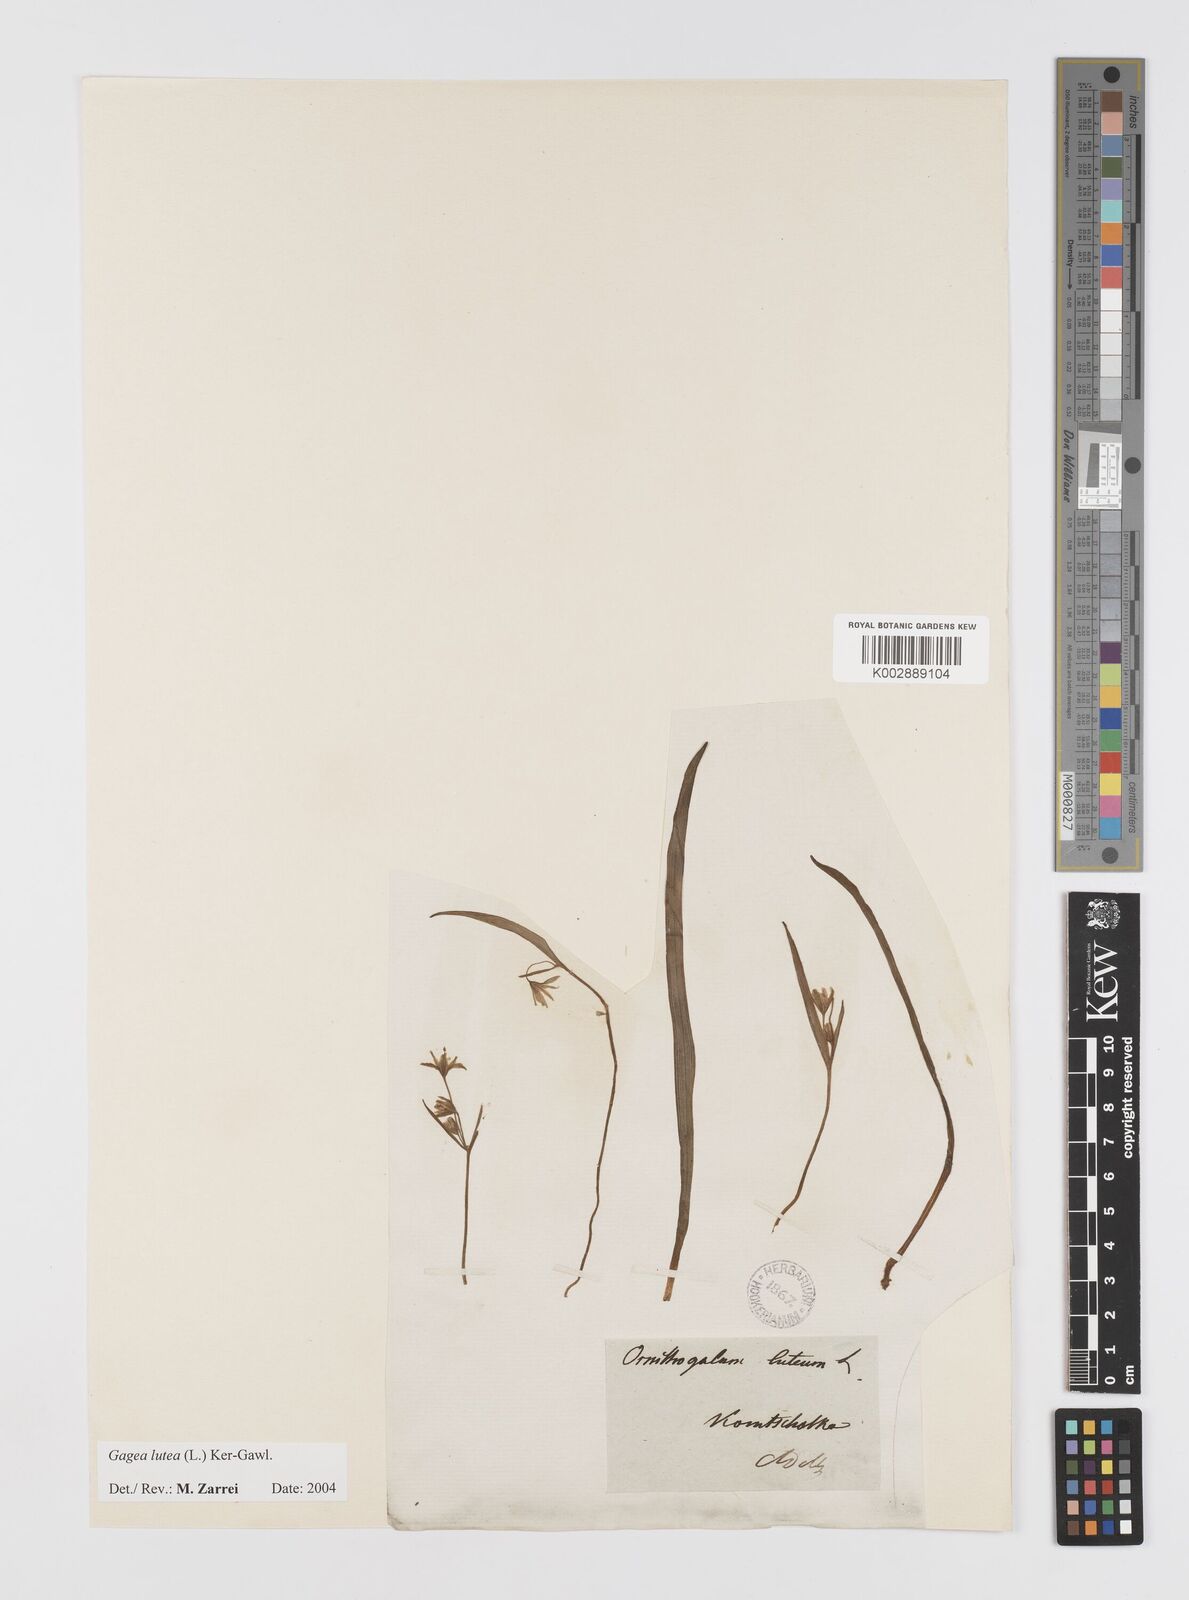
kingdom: Plantae
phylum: Tracheophyta
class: Liliopsida
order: Liliales
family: Liliaceae
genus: Gagea
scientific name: Gagea lutea
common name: Yellow star-of-bethlehem
